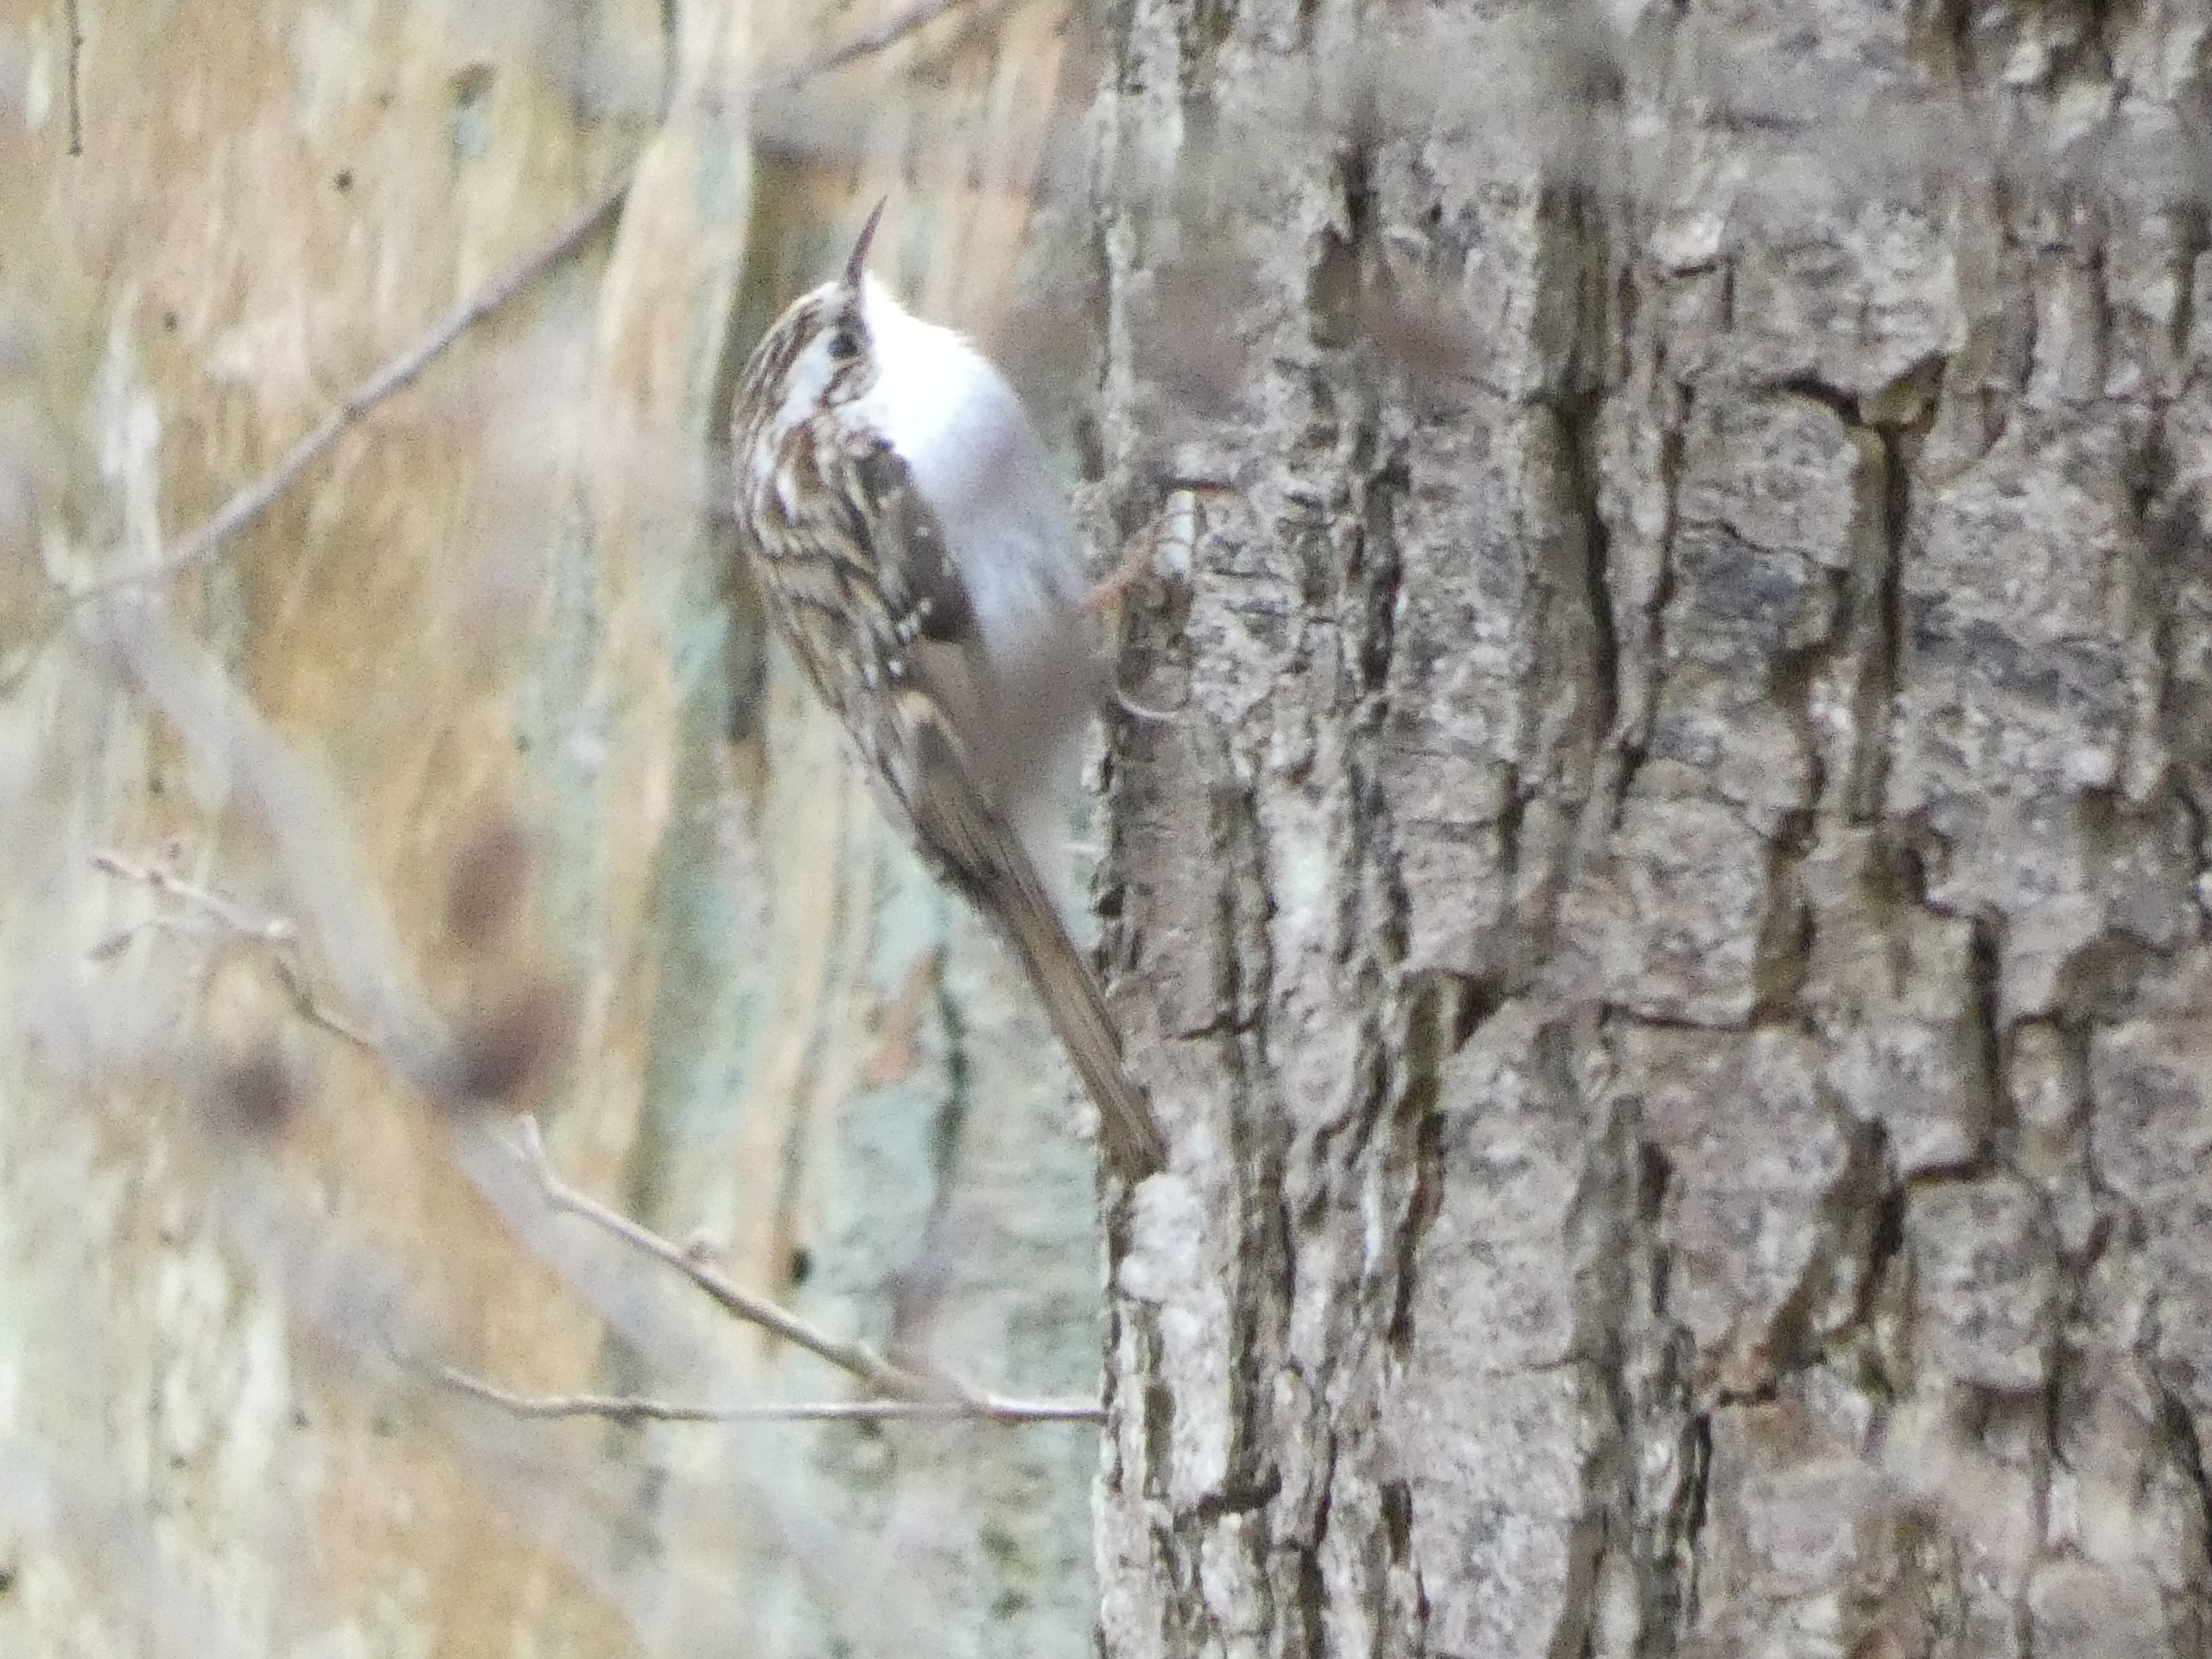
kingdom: Animalia
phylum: Chordata
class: Aves
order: Passeriformes
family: Certhiidae
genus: Certhia
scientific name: Certhia familiaris
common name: Træløber
